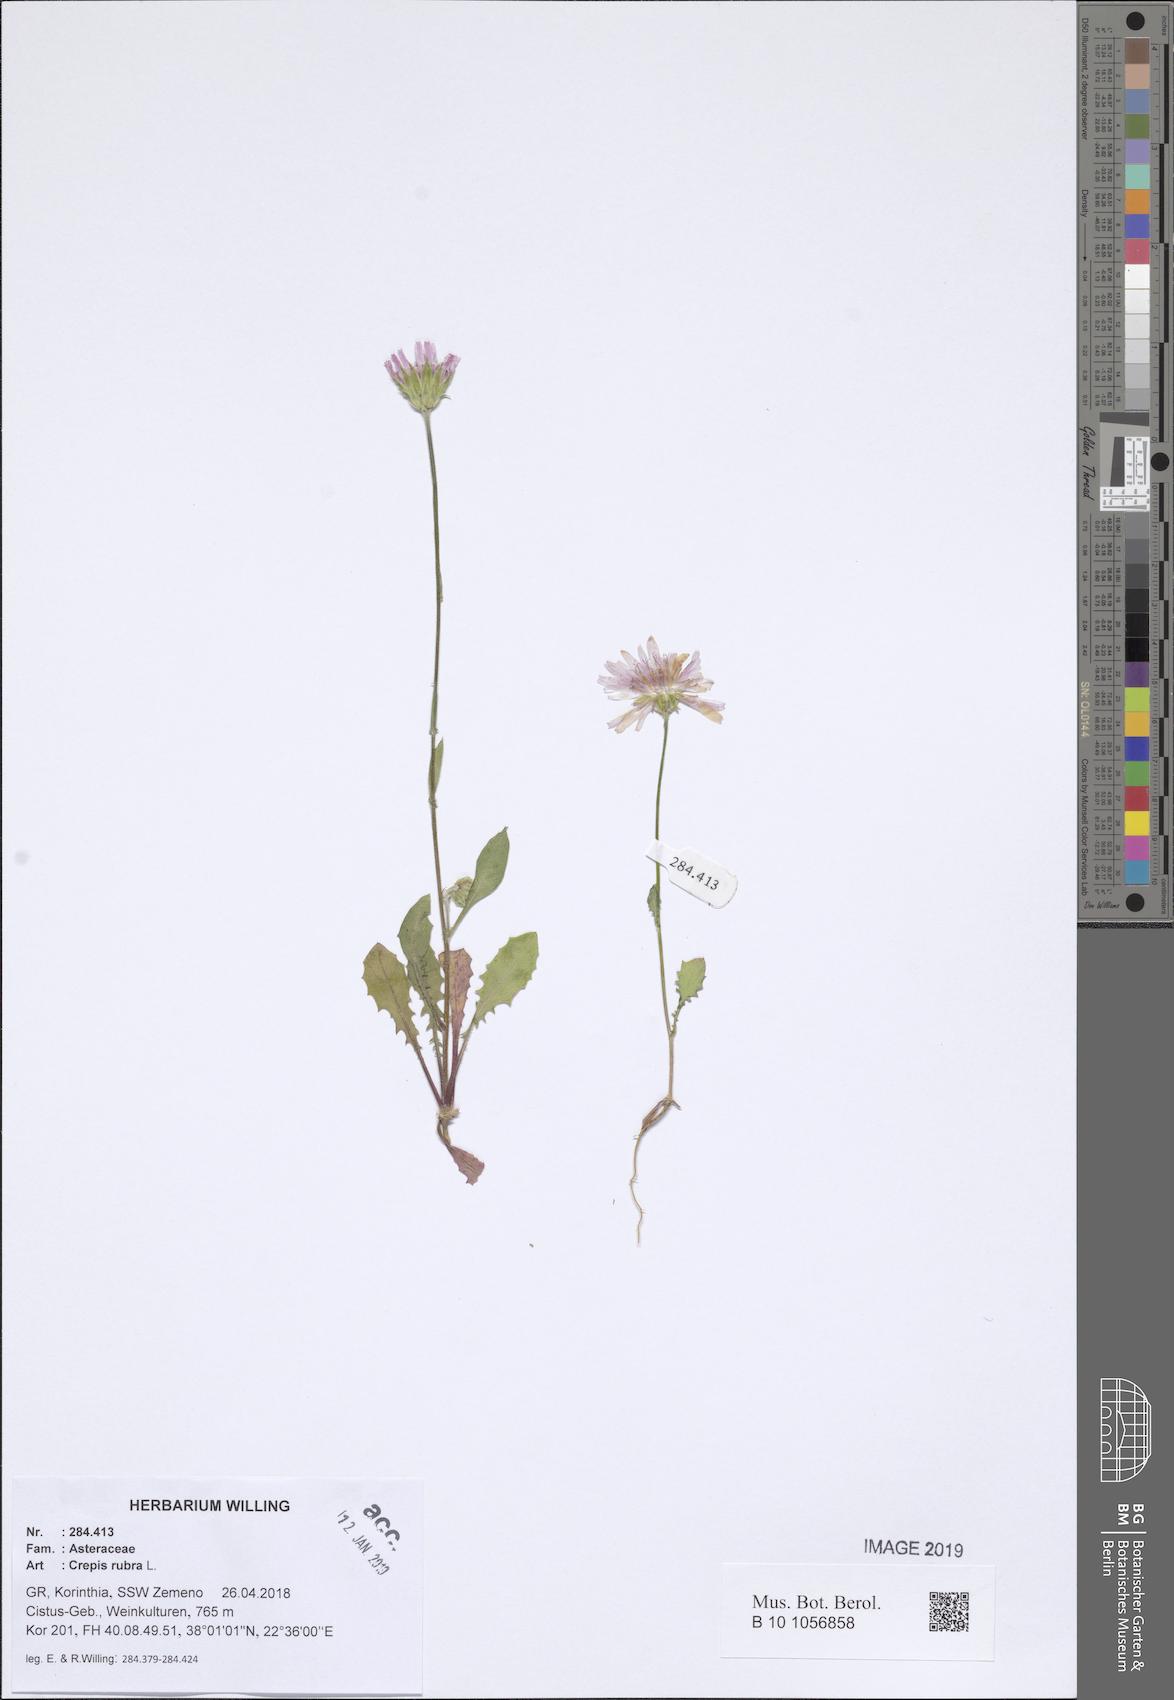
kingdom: Plantae
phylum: Tracheophyta
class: Magnoliopsida
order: Asterales
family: Asteraceae
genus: Crepis
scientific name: Crepis rubra
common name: Pink hawk's-beard
